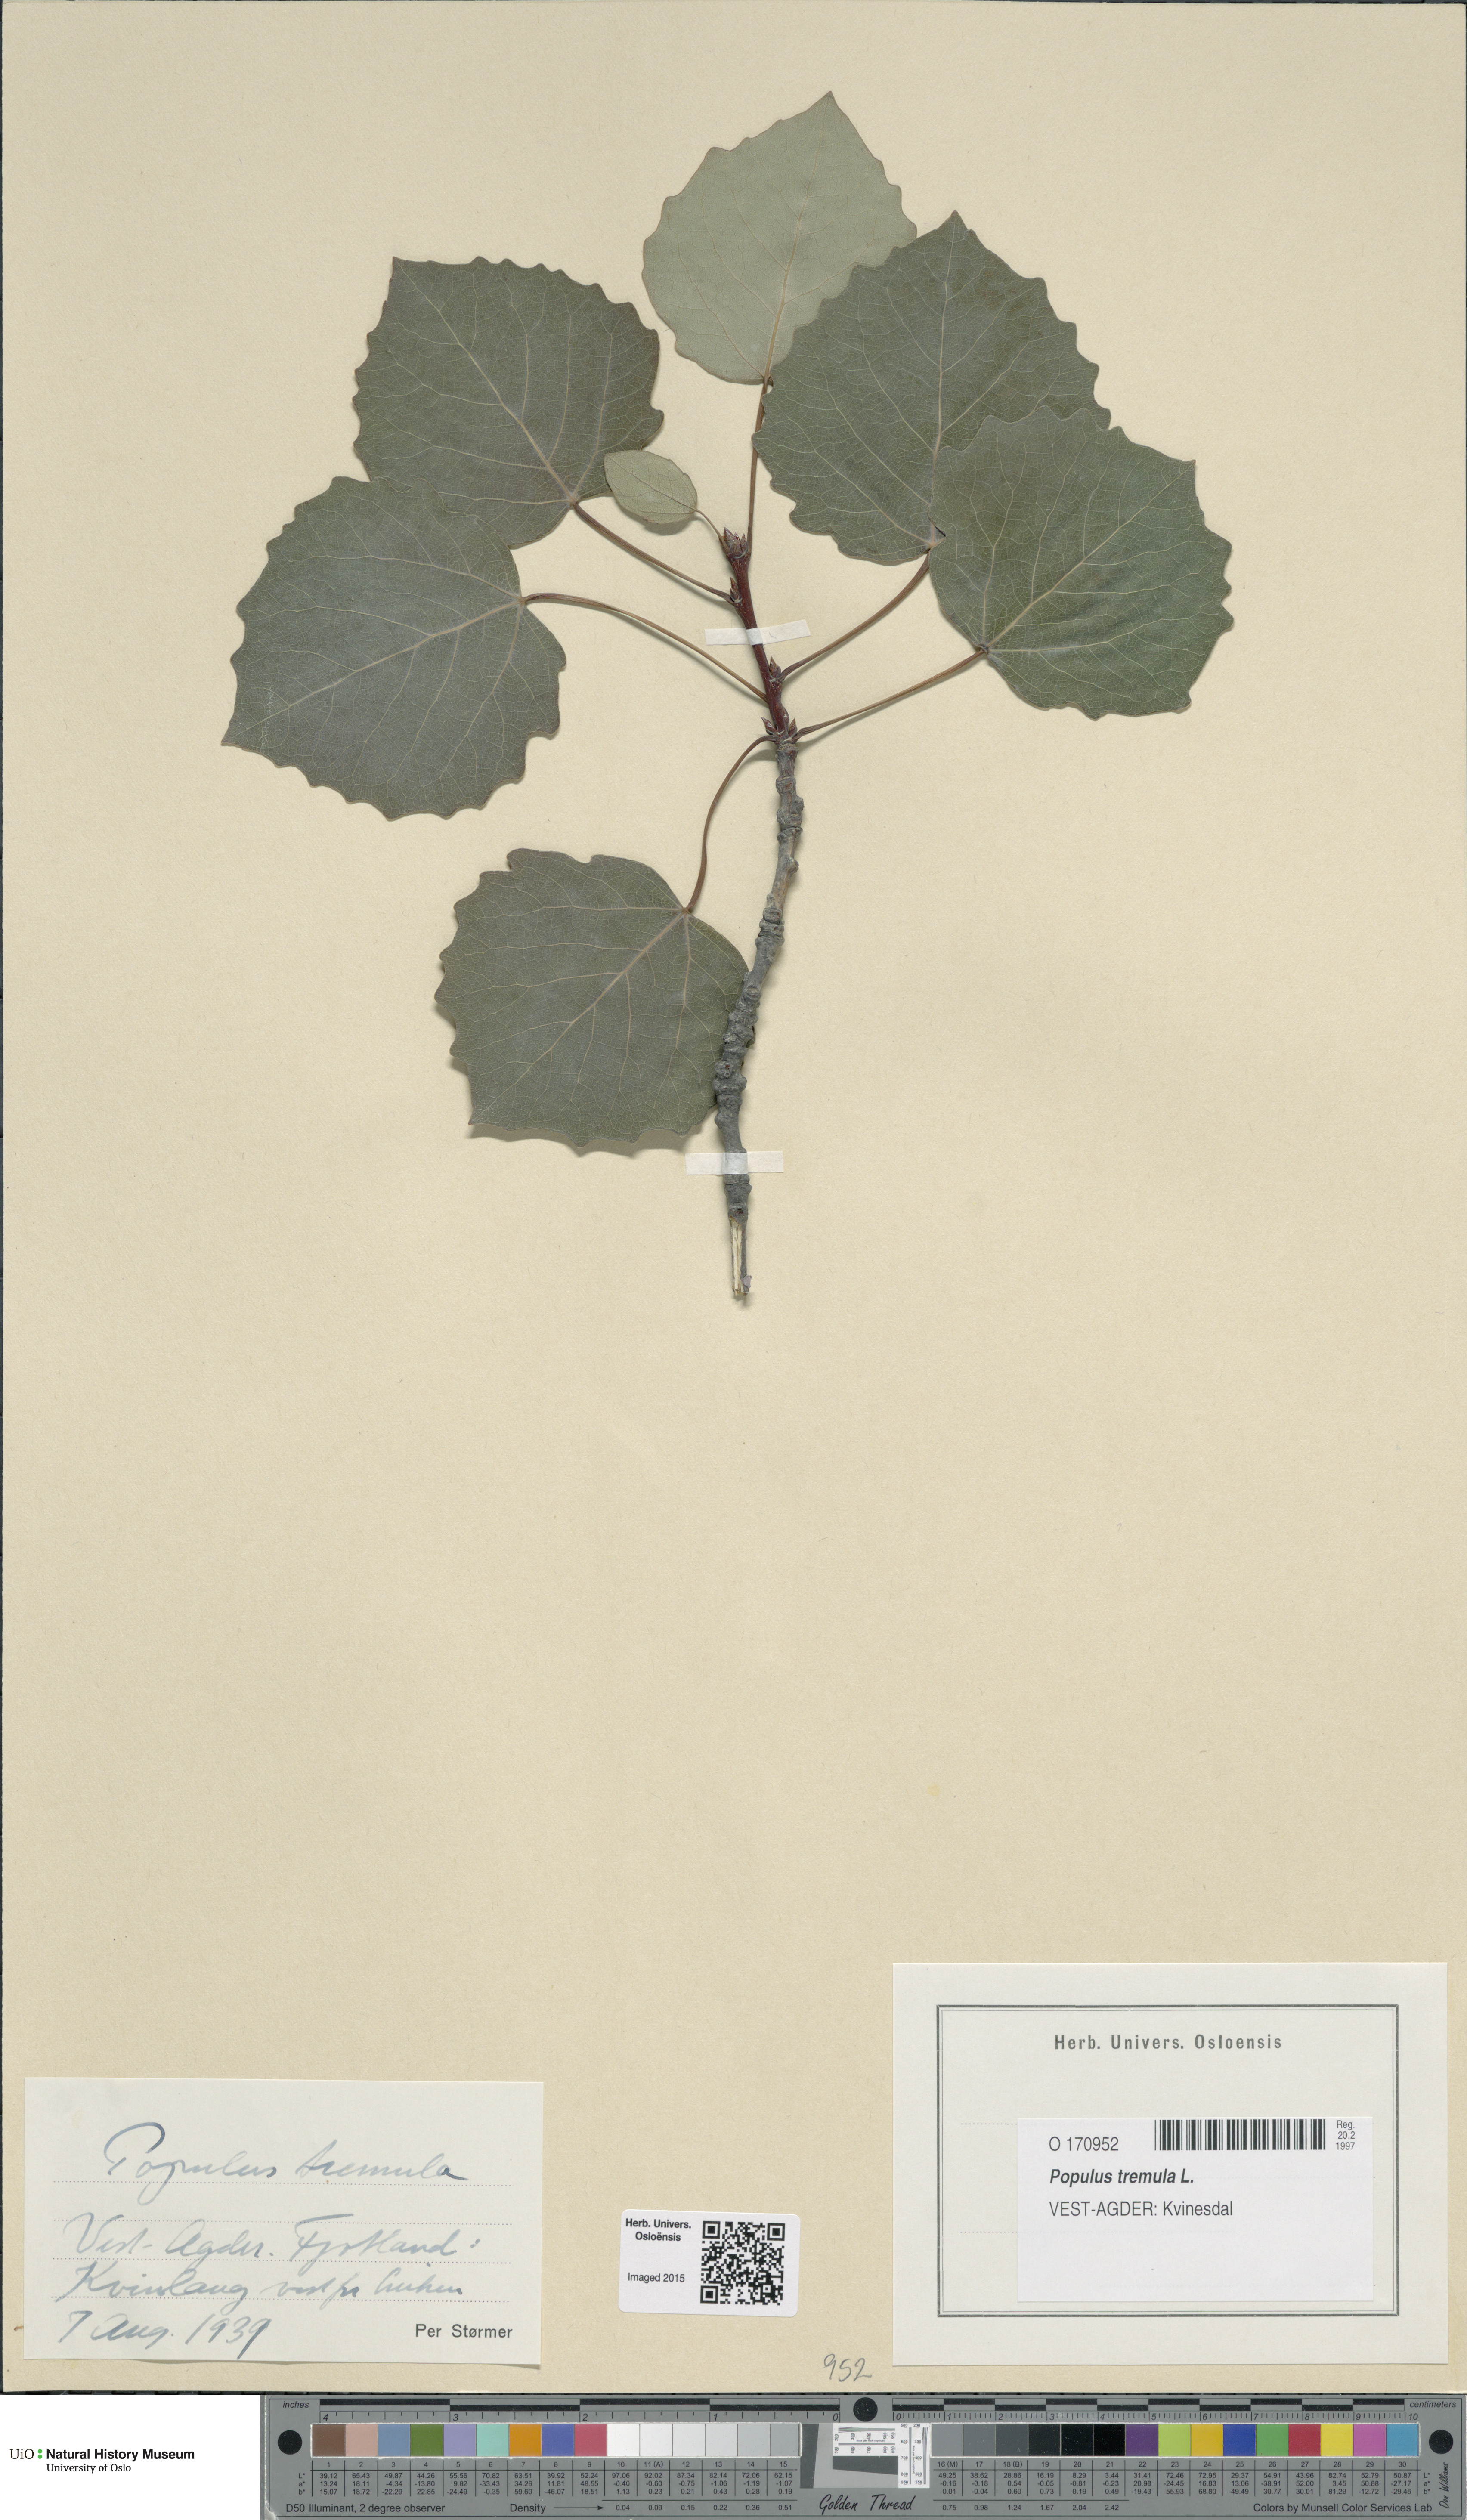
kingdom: Plantae
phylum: Tracheophyta
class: Magnoliopsida
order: Malpighiales
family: Salicaceae
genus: Populus
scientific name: Populus tremula
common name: European aspen
